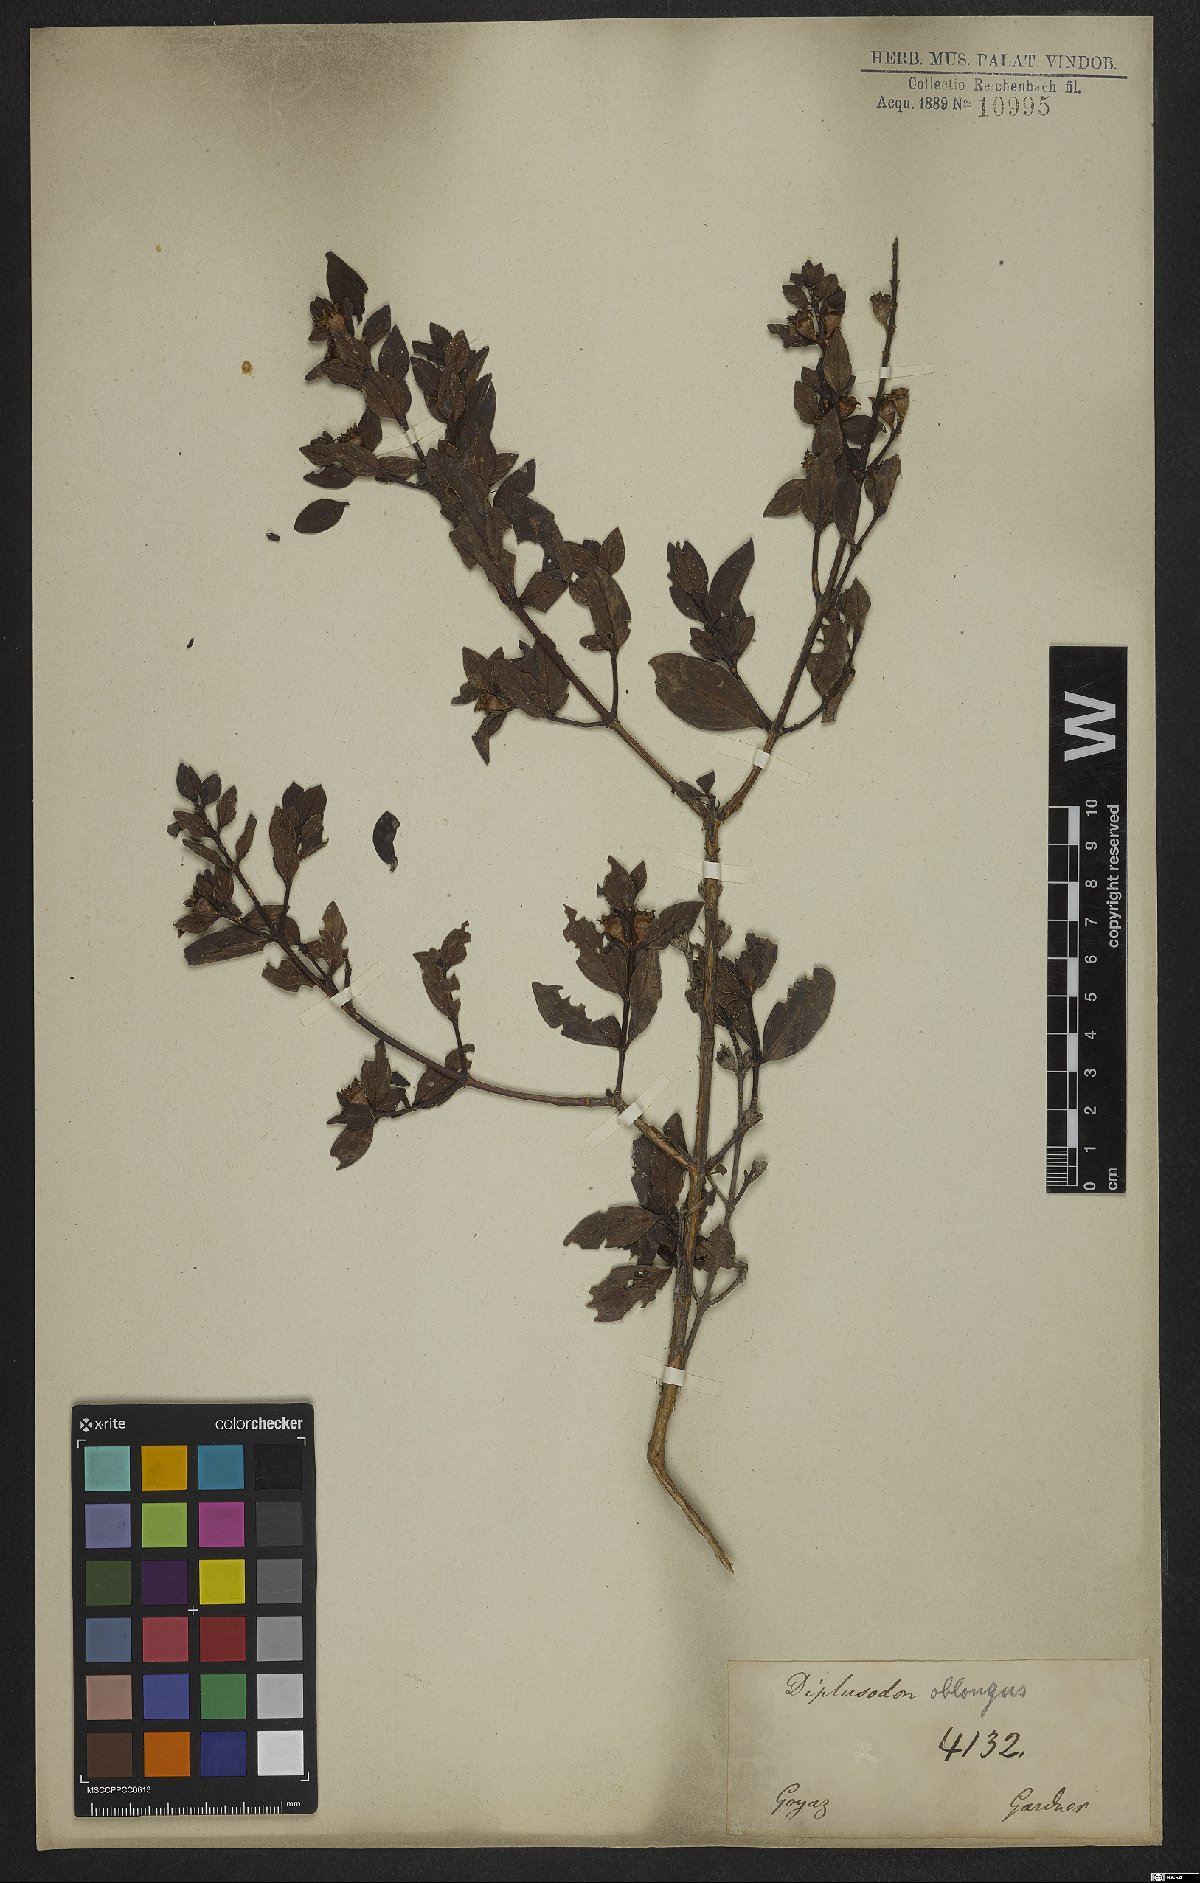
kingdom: Plantae
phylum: Tracheophyta
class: Magnoliopsida
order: Myrtales
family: Lythraceae
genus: Diplusodon
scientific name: Diplusodon oblongus
